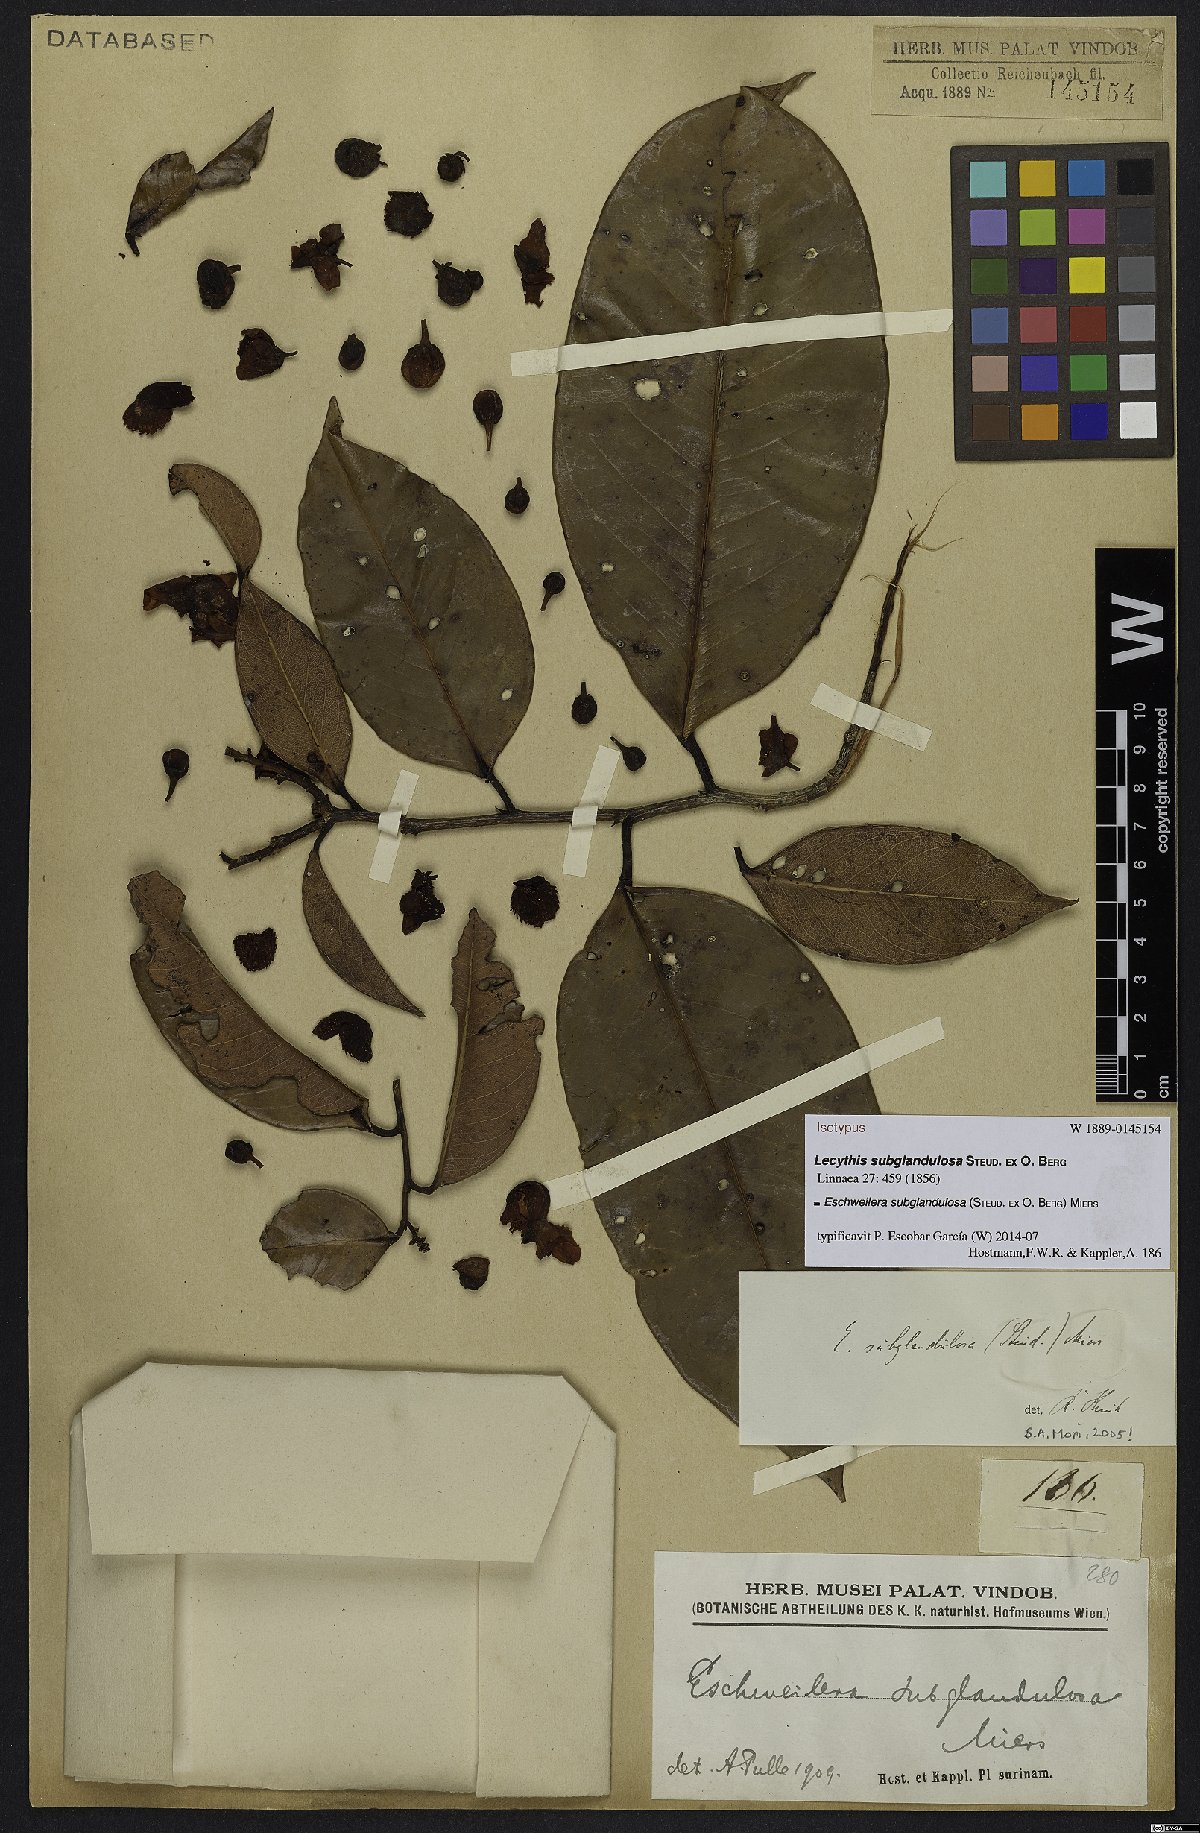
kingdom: Plantae
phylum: Tracheophyta
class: Magnoliopsida
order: Ericales
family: Lecythidaceae
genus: Eschweilera
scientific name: Eschweilera subglandulosa
